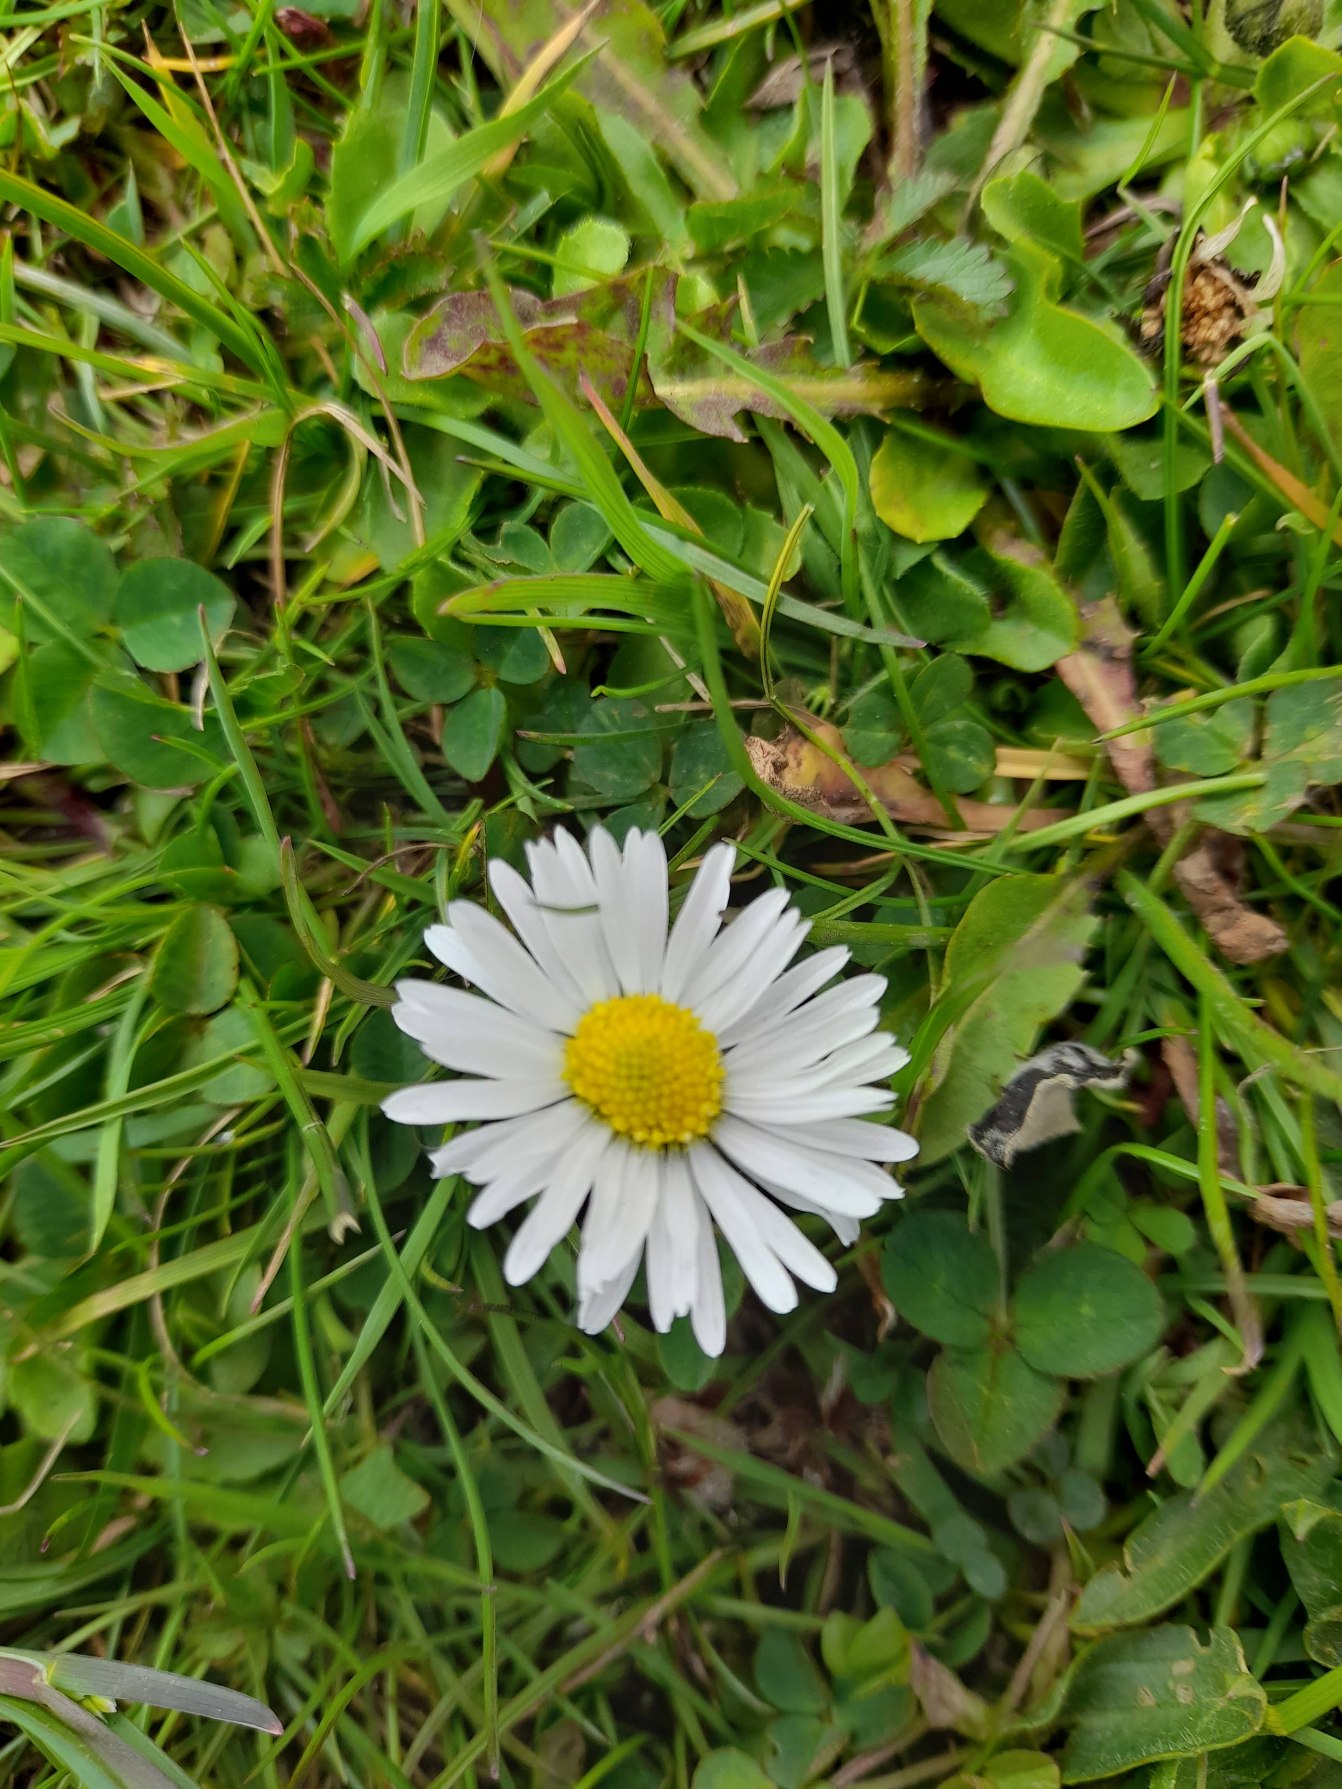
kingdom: Plantae
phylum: Tracheophyta
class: Magnoliopsida
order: Asterales
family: Asteraceae
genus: Bellis
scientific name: Bellis perennis
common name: Tusindfryd
